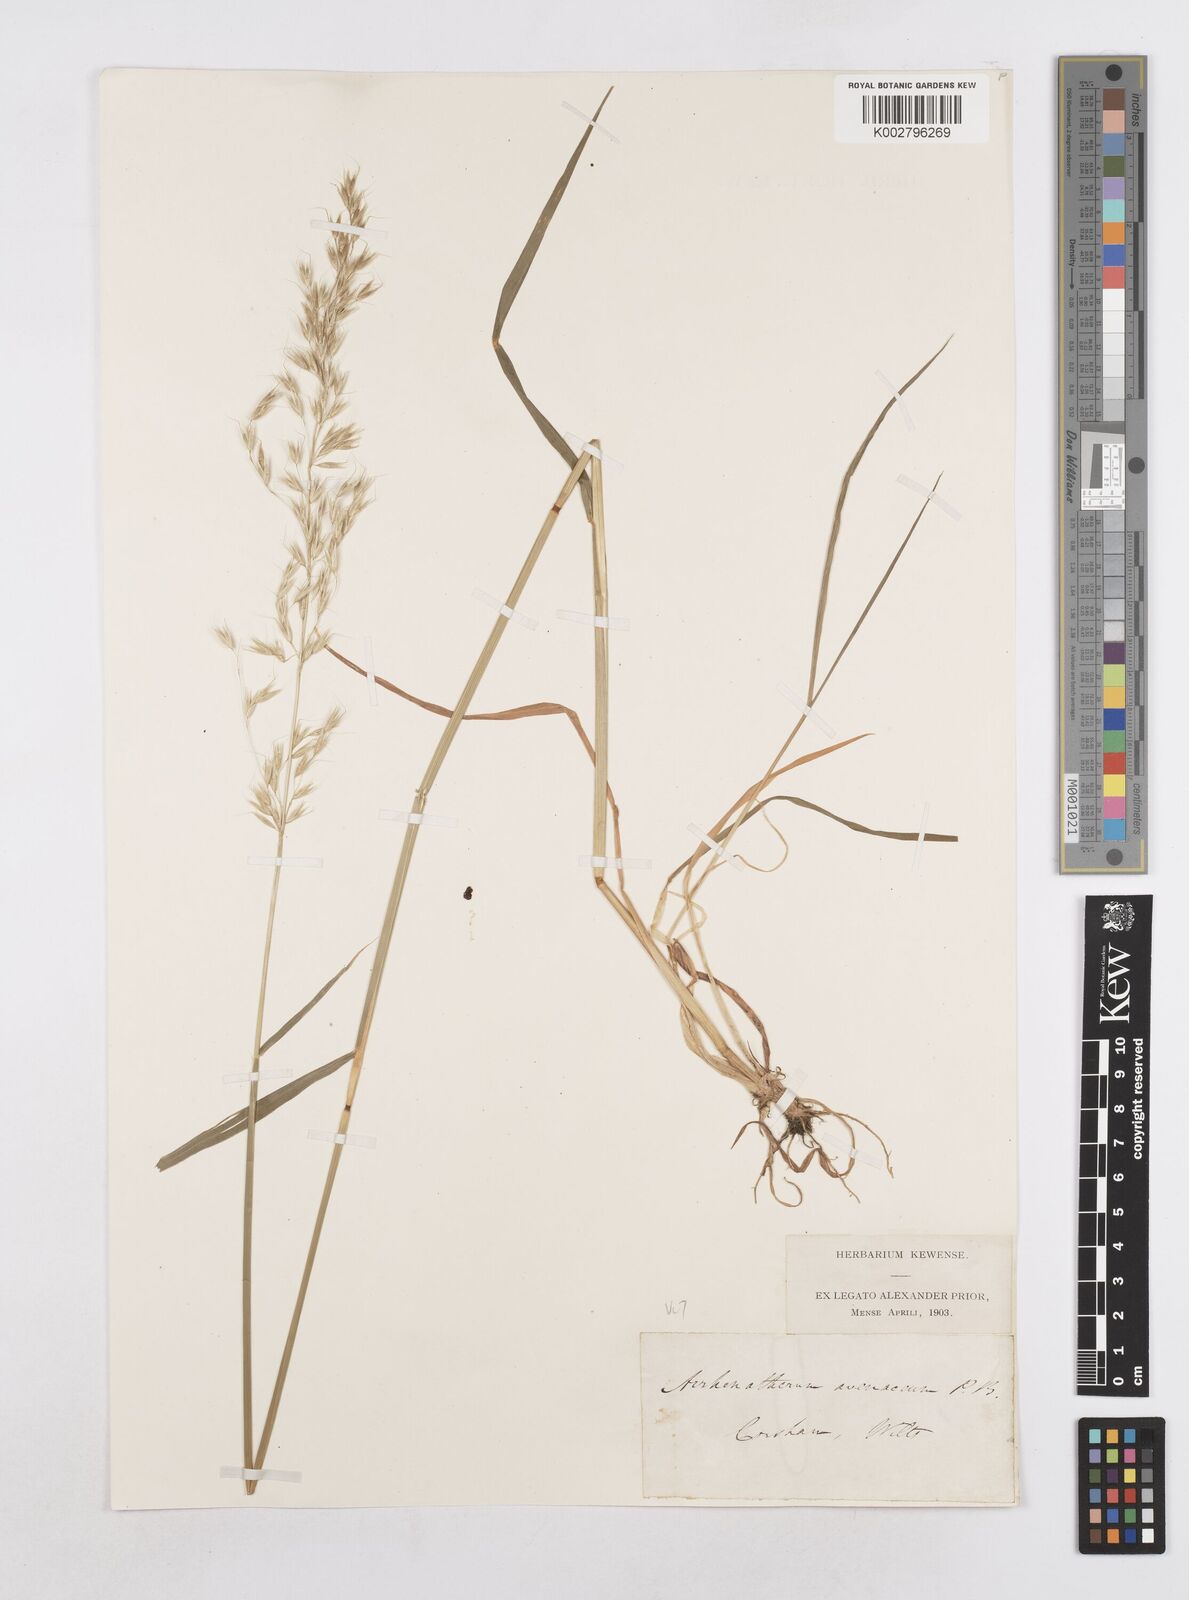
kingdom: Plantae
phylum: Tracheophyta
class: Liliopsida
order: Poales
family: Poaceae
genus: Arrhenatherum
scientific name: Arrhenatherum elatius
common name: Tall oatgrass
